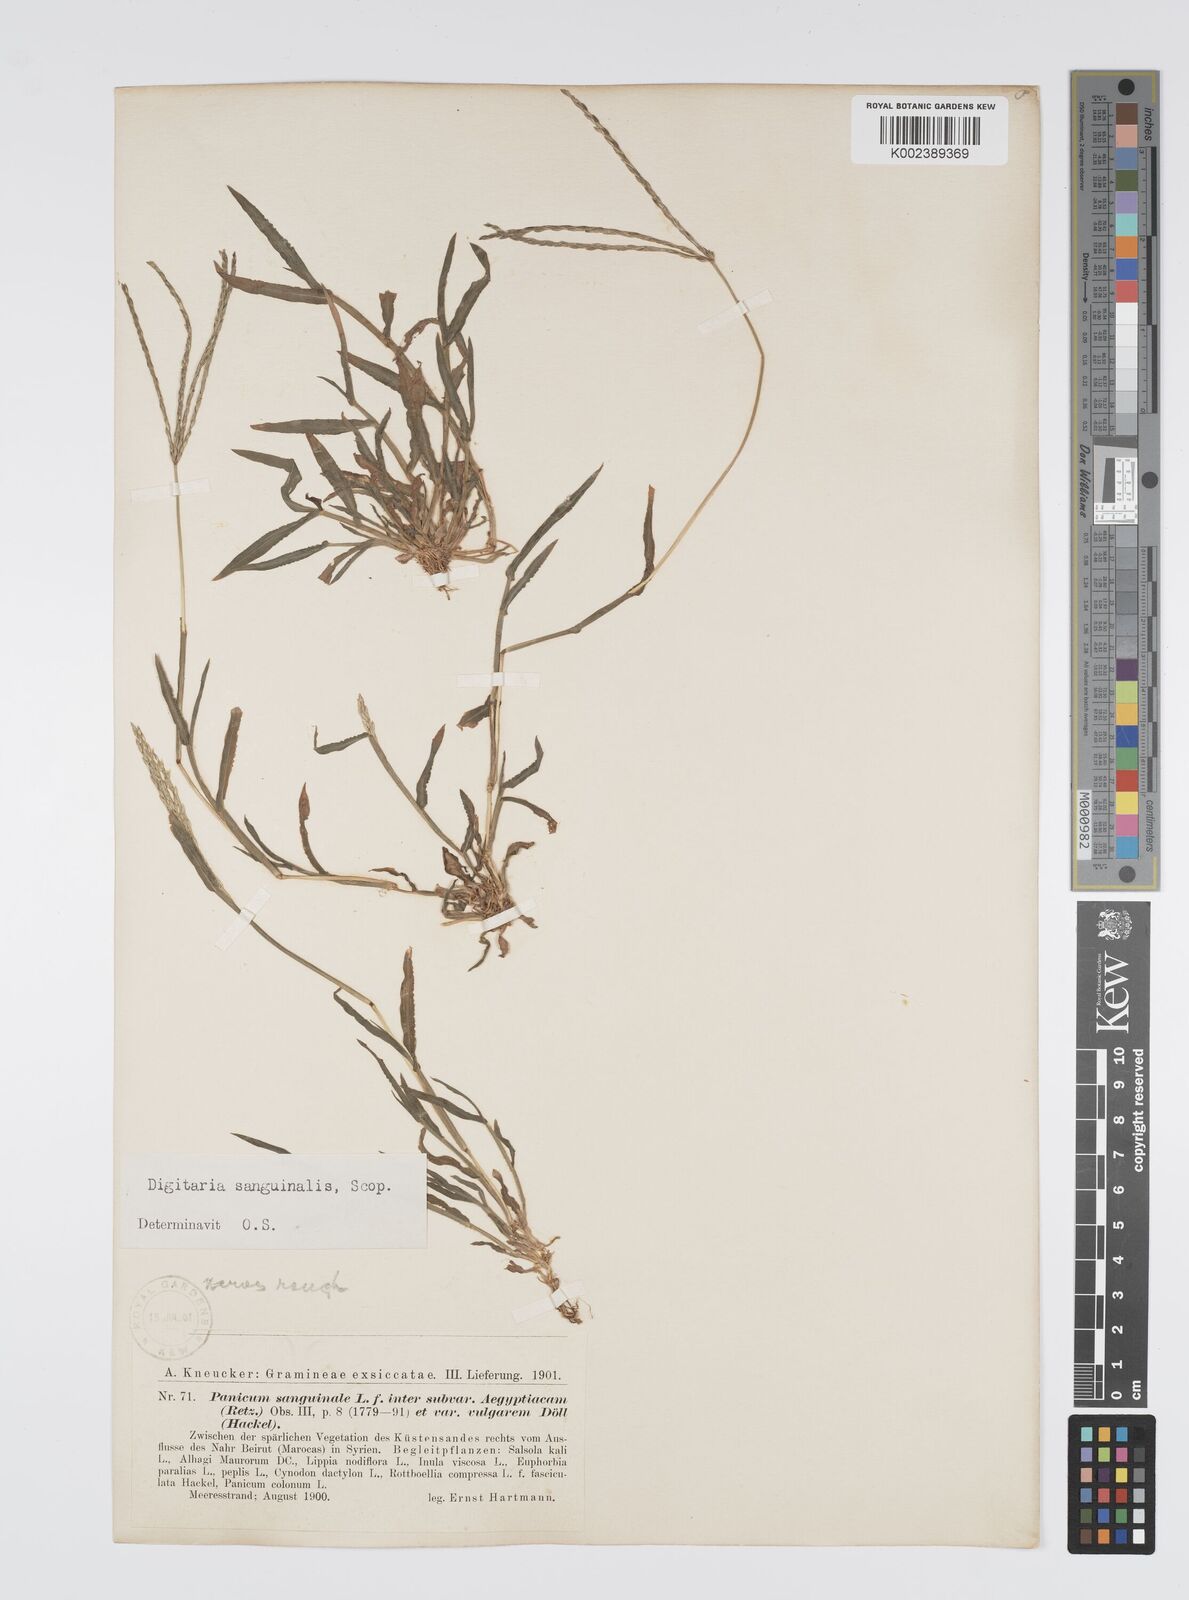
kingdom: Plantae
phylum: Tracheophyta
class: Liliopsida
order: Poales
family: Poaceae
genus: Digitaria
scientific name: Digitaria sanguinalis
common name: Hairy crabgrass
